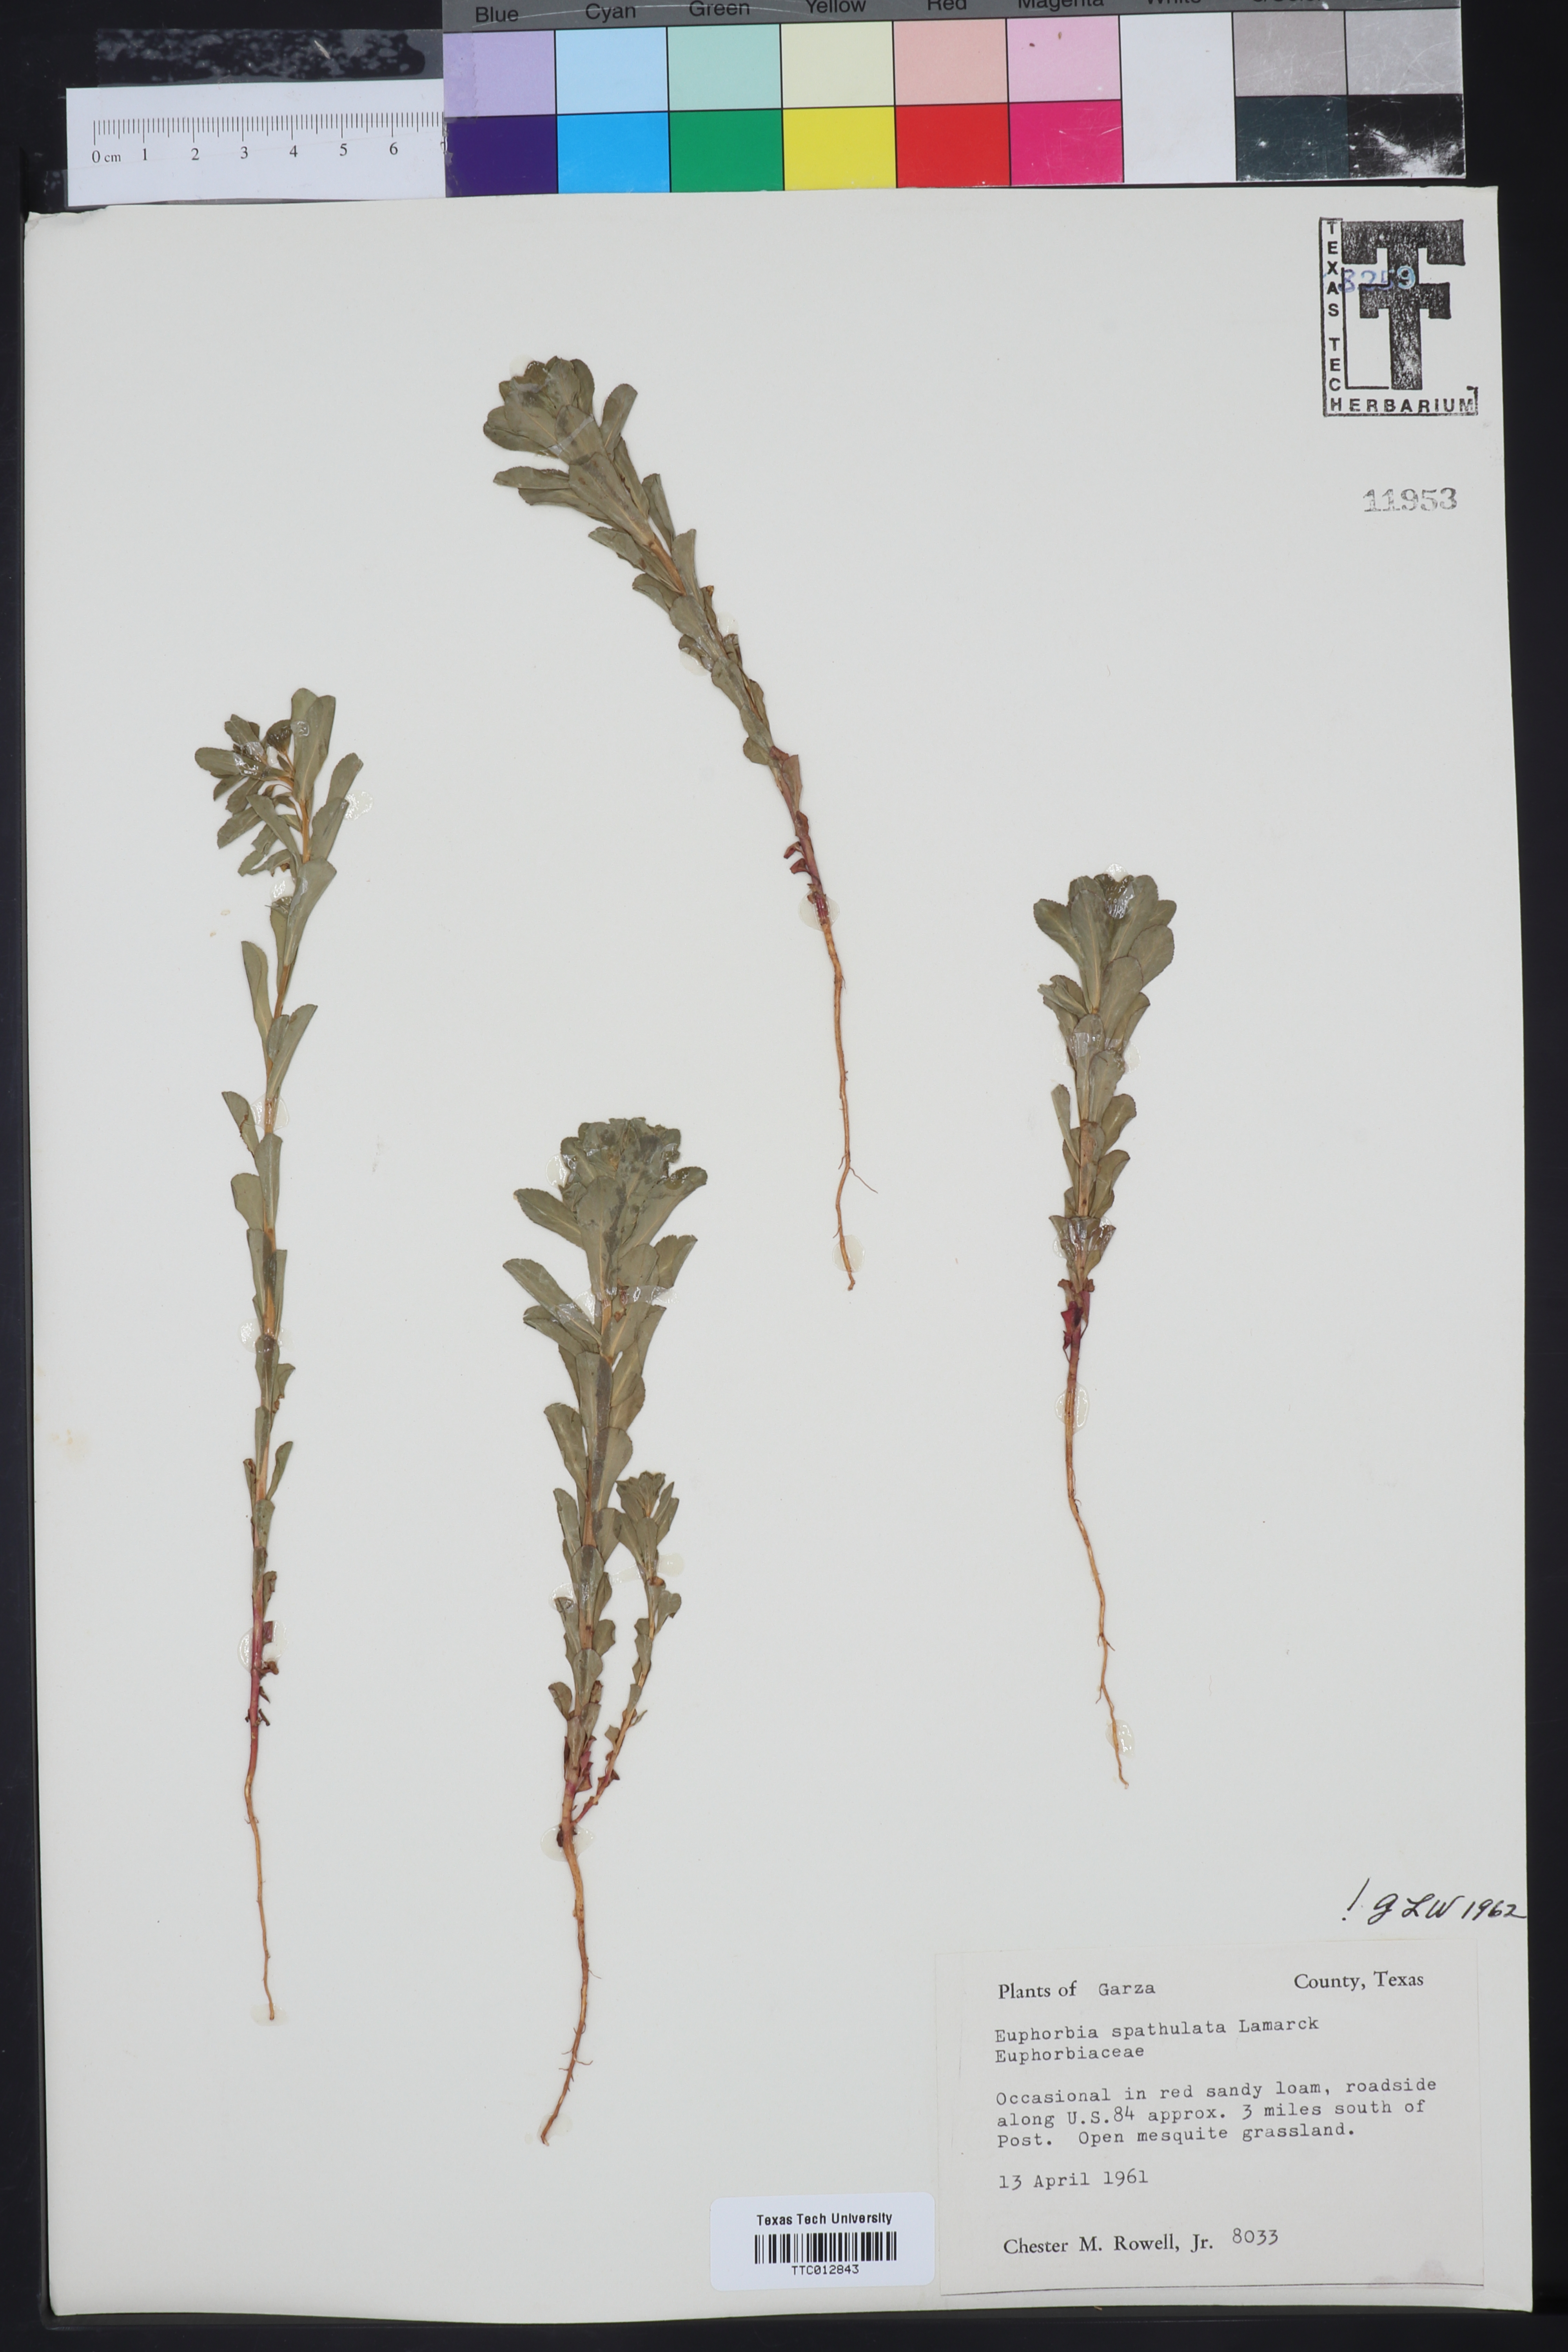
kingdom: Plantae
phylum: Tracheophyta
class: Magnoliopsida
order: Malpighiales
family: Euphorbiaceae
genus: Euphorbia
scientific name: Euphorbia spathulata
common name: Blunt spurge
